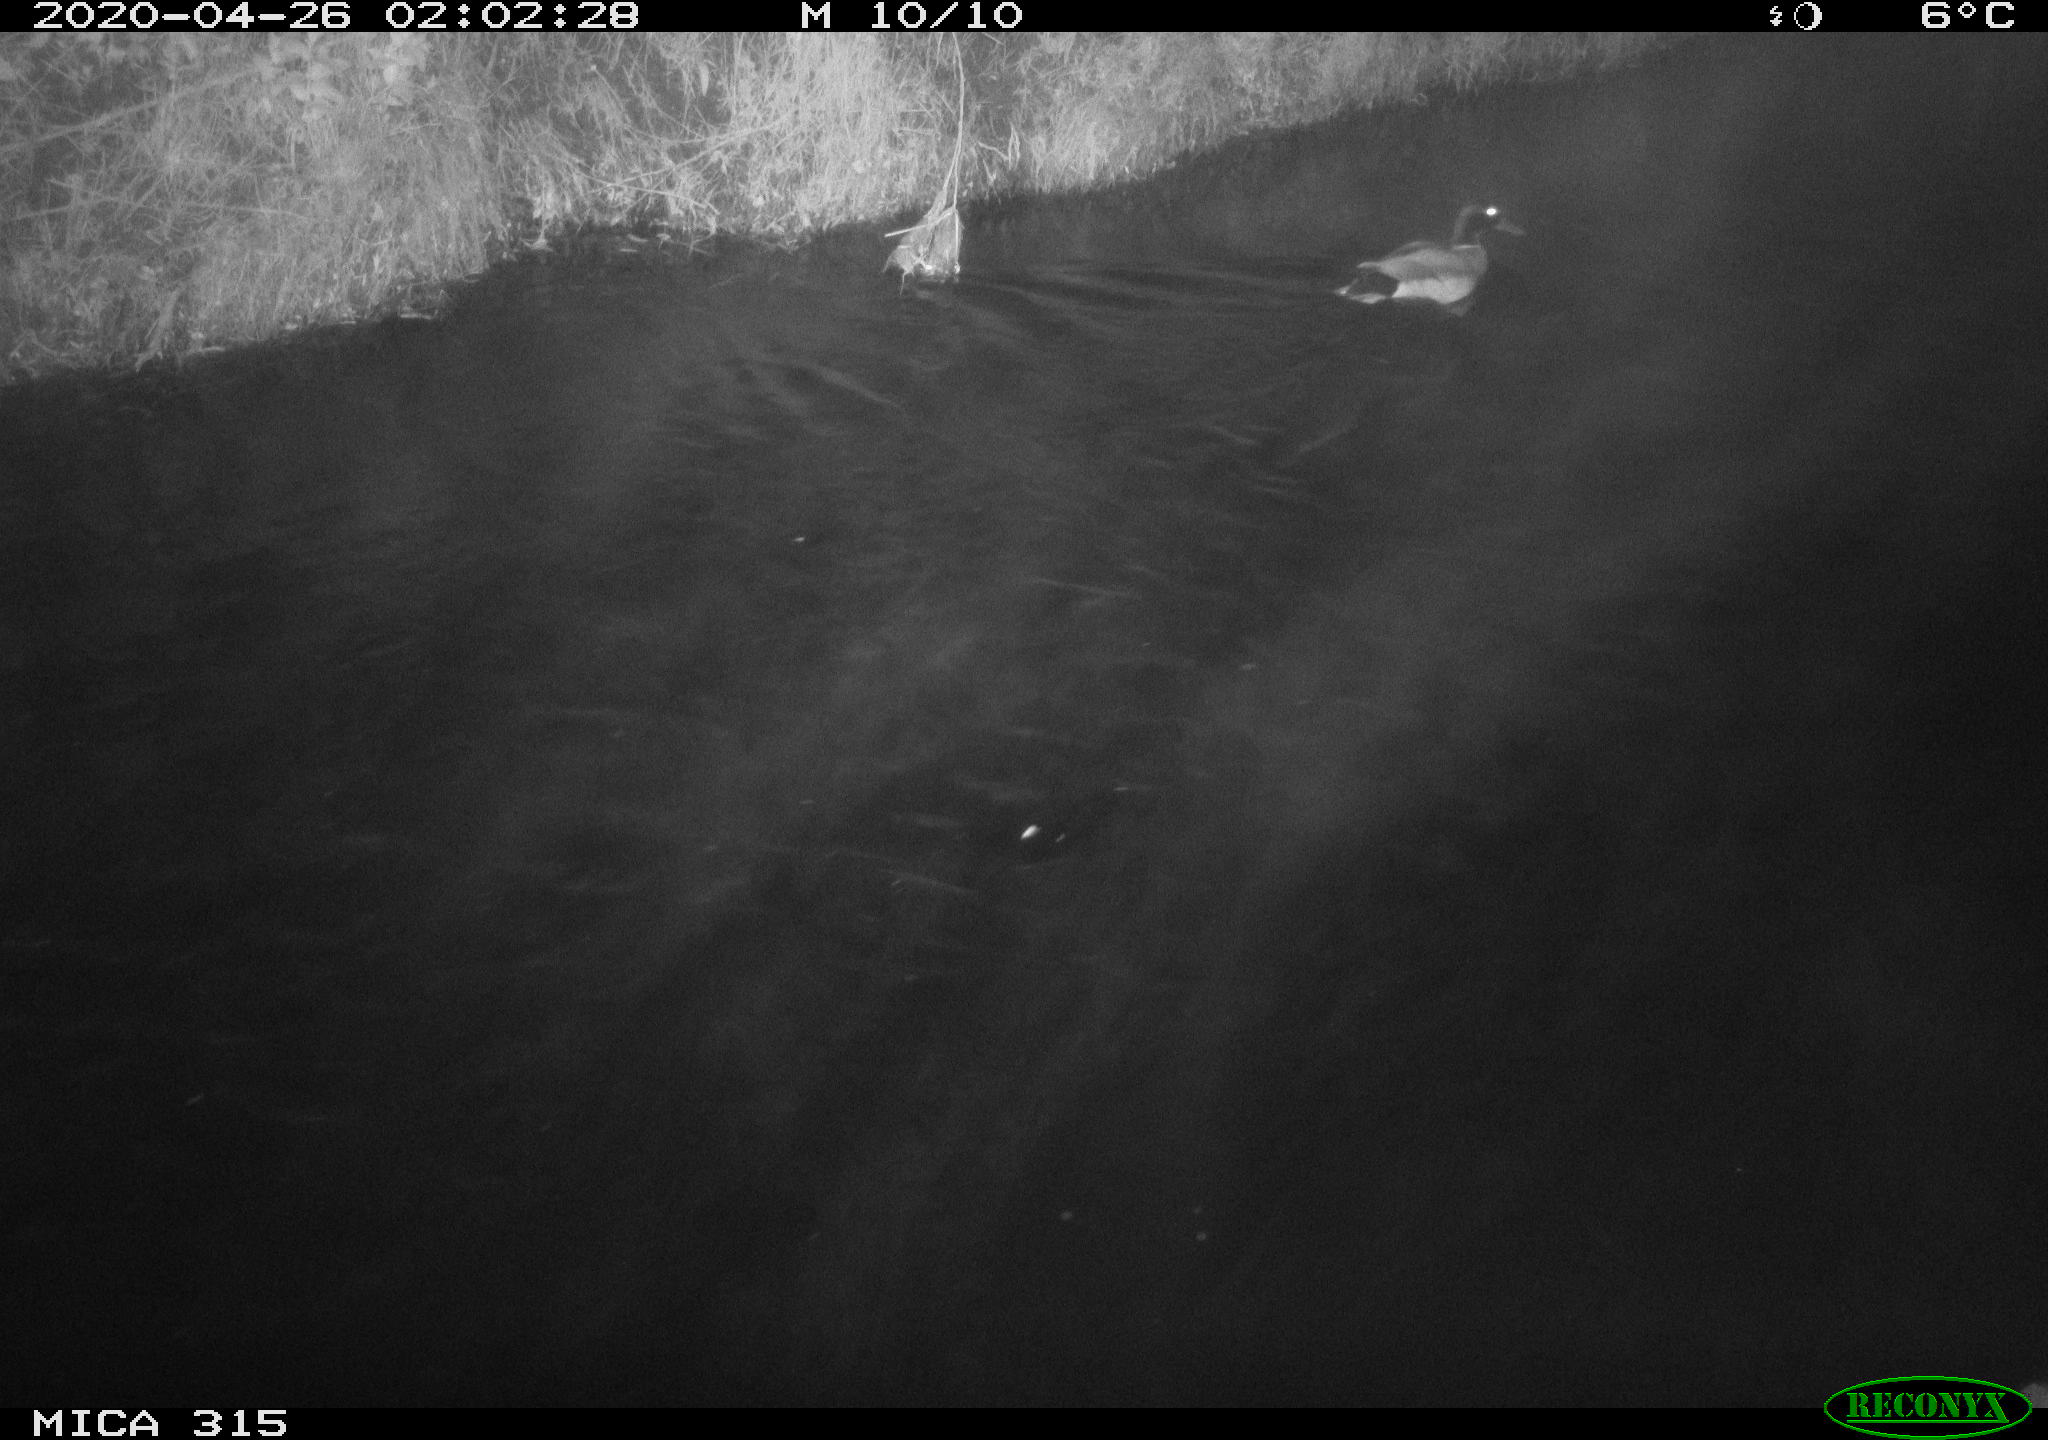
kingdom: Animalia
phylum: Chordata
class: Aves
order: Anseriformes
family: Anatidae
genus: Anas
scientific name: Anas platyrhynchos
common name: Mallard
